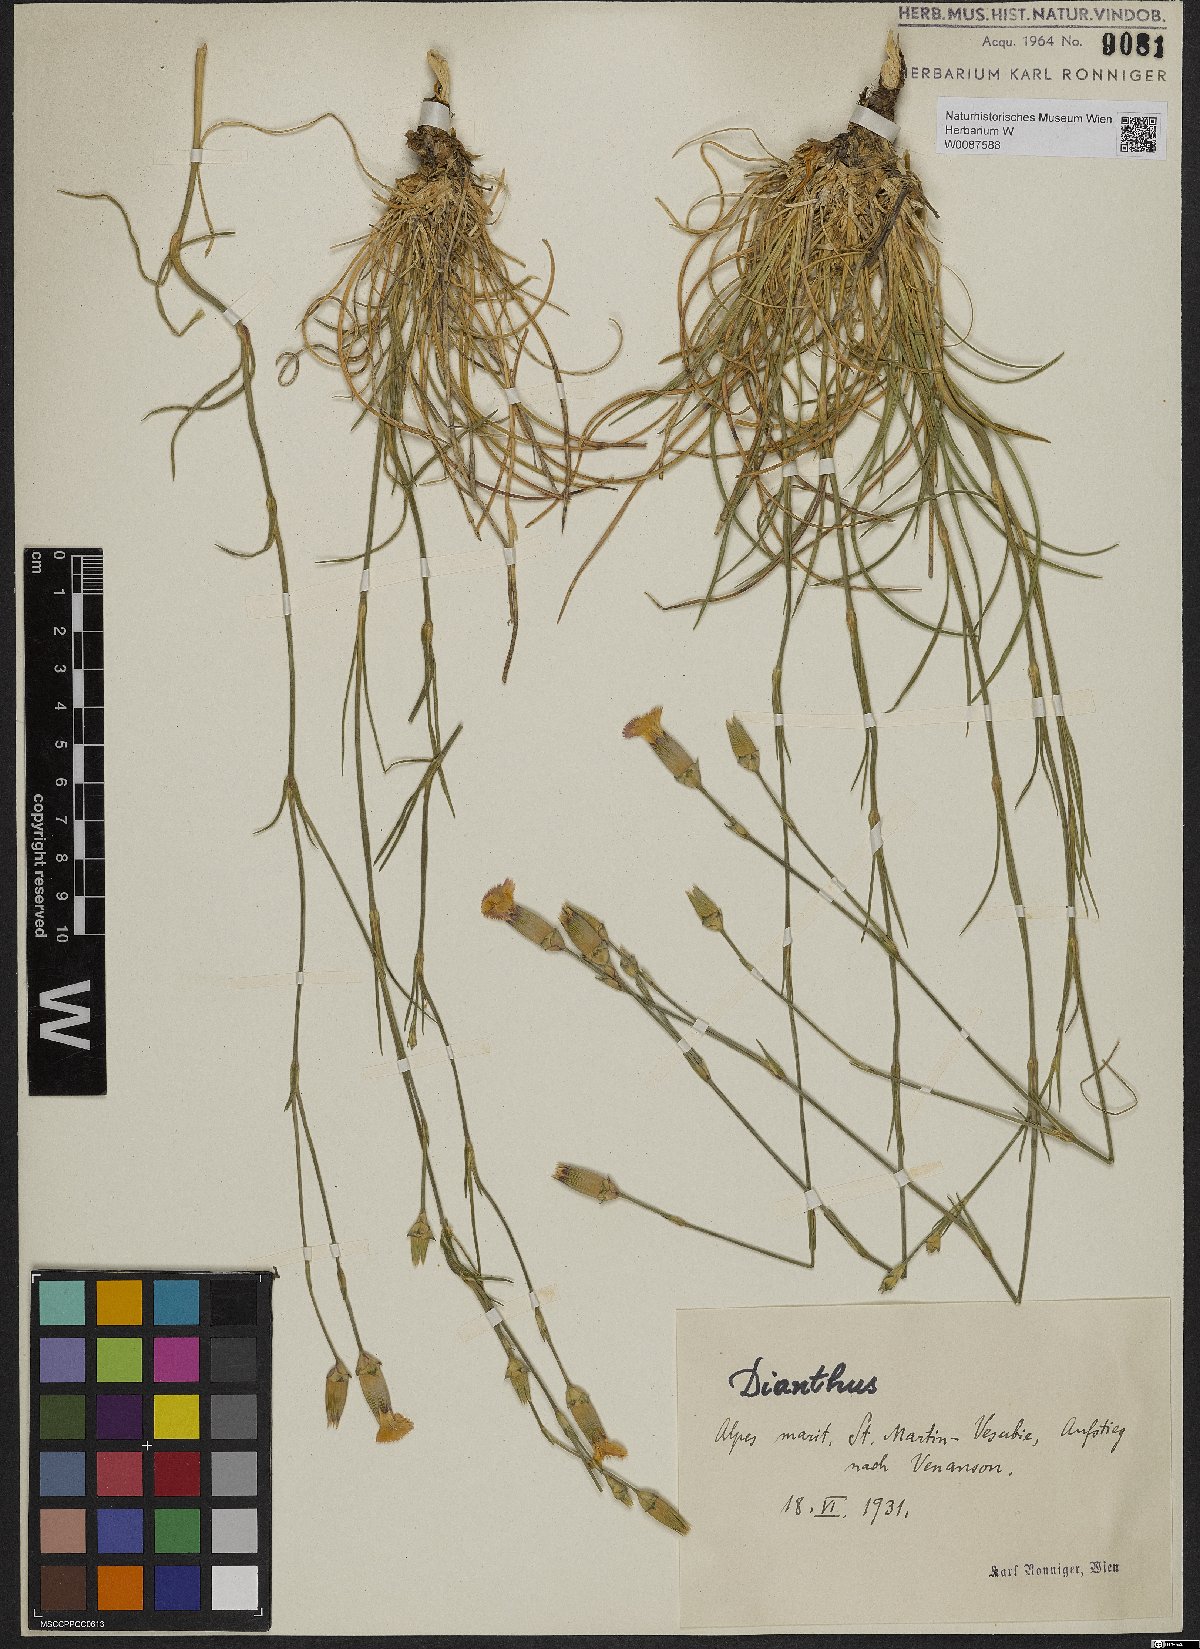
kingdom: Plantae
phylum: Tracheophyta
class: Magnoliopsida
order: Caryophyllales
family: Caryophyllaceae
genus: Dianthus
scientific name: Dianthus
